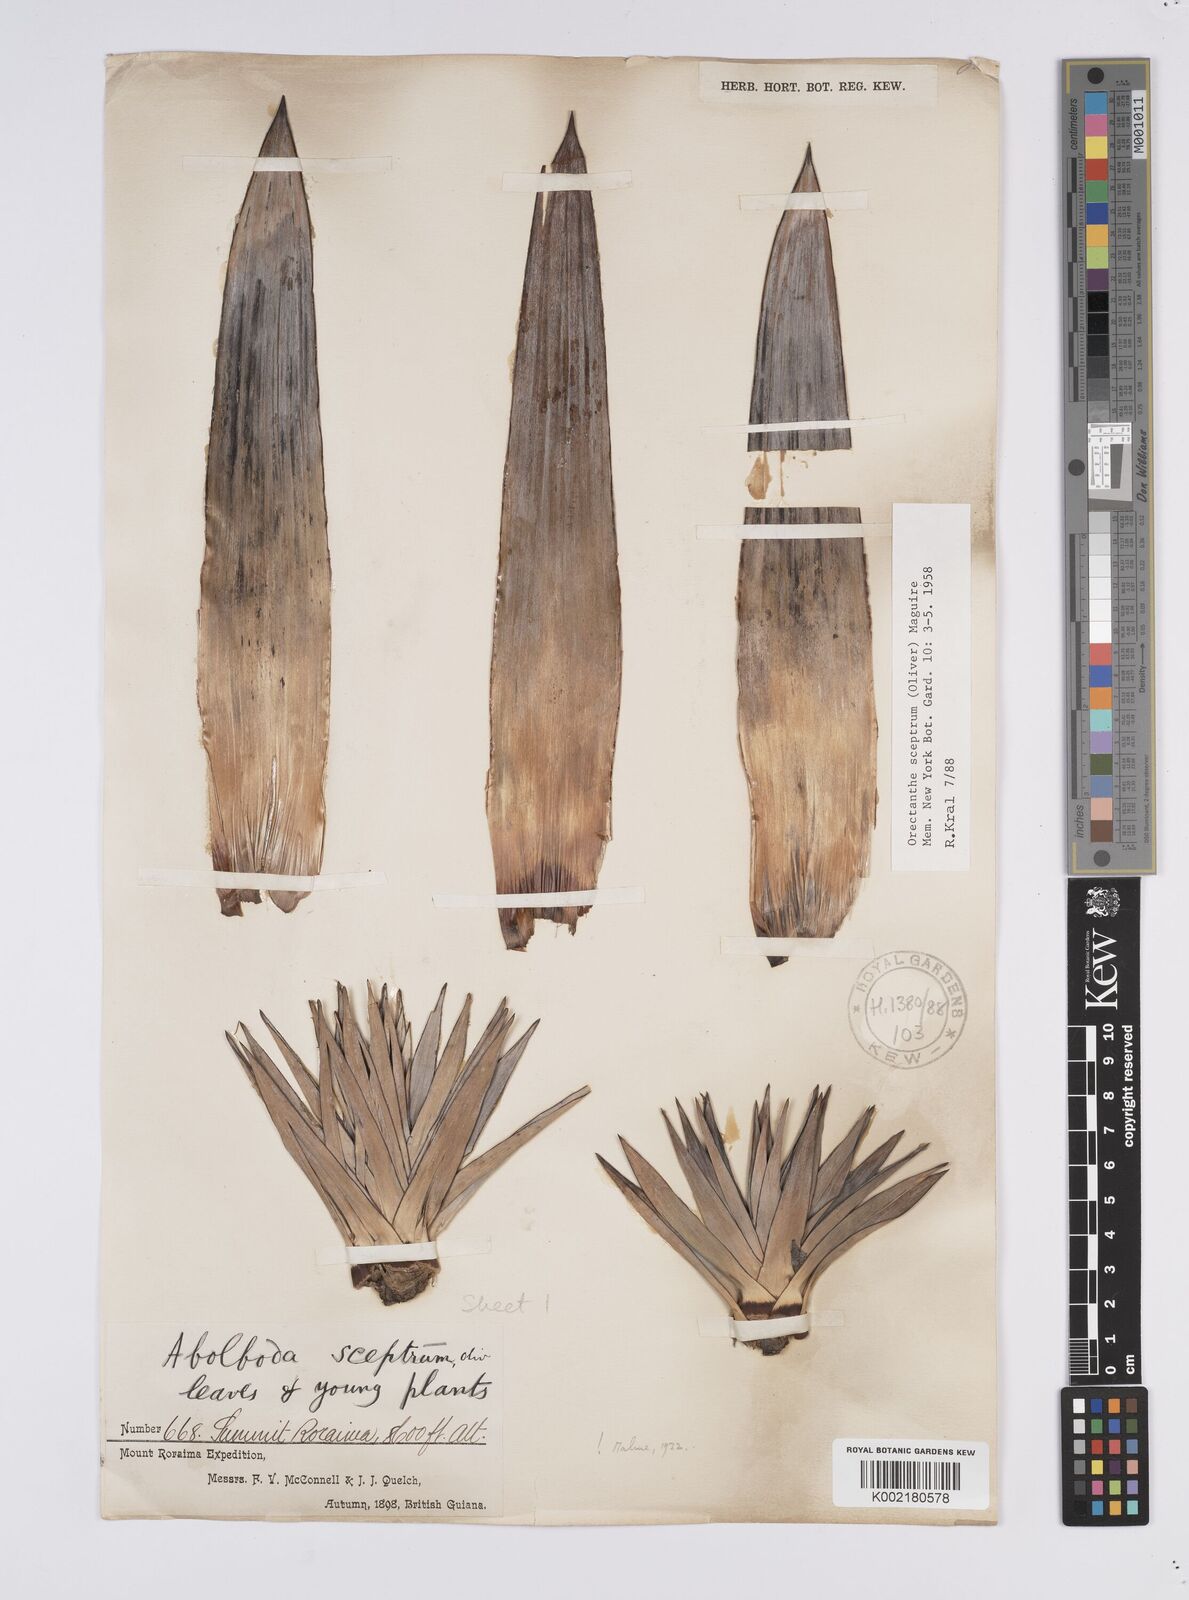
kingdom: Plantae
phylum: Tracheophyta
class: Liliopsida
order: Poales
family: Xyridaceae
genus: Orectanthe
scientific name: Orectanthe sceptrum
